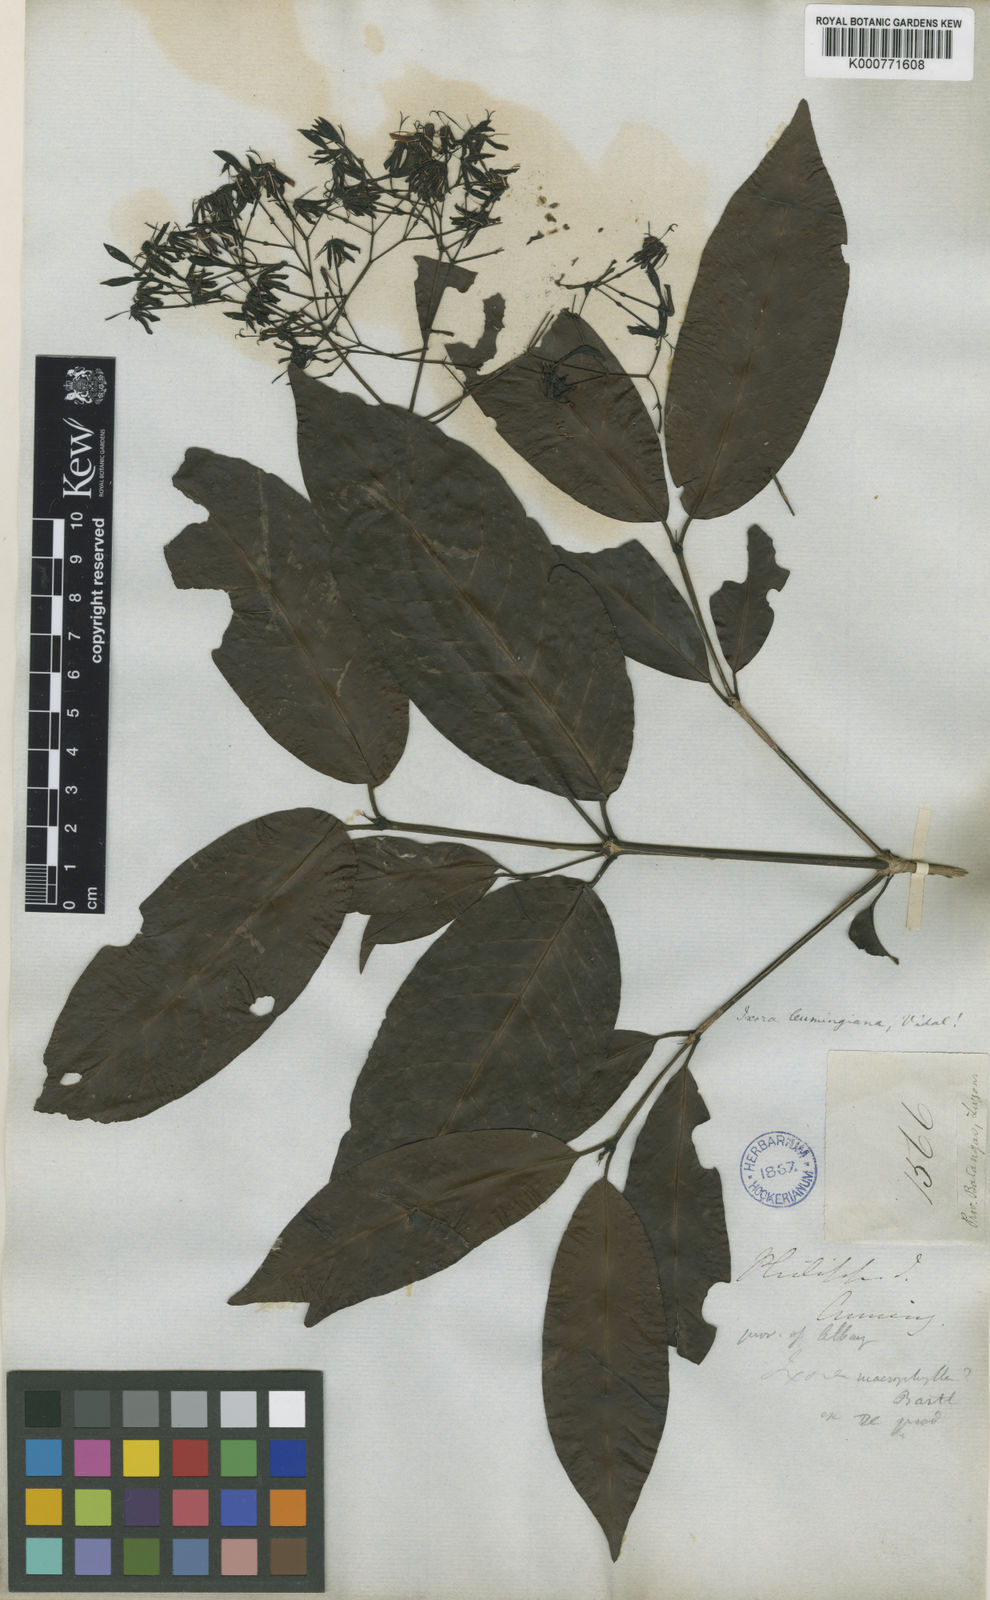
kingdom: Plantae
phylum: Tracheophyta
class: Magnoliopsida
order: Gentianales
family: Rubiaceae
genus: Ixora
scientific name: Ixora cumingiana
